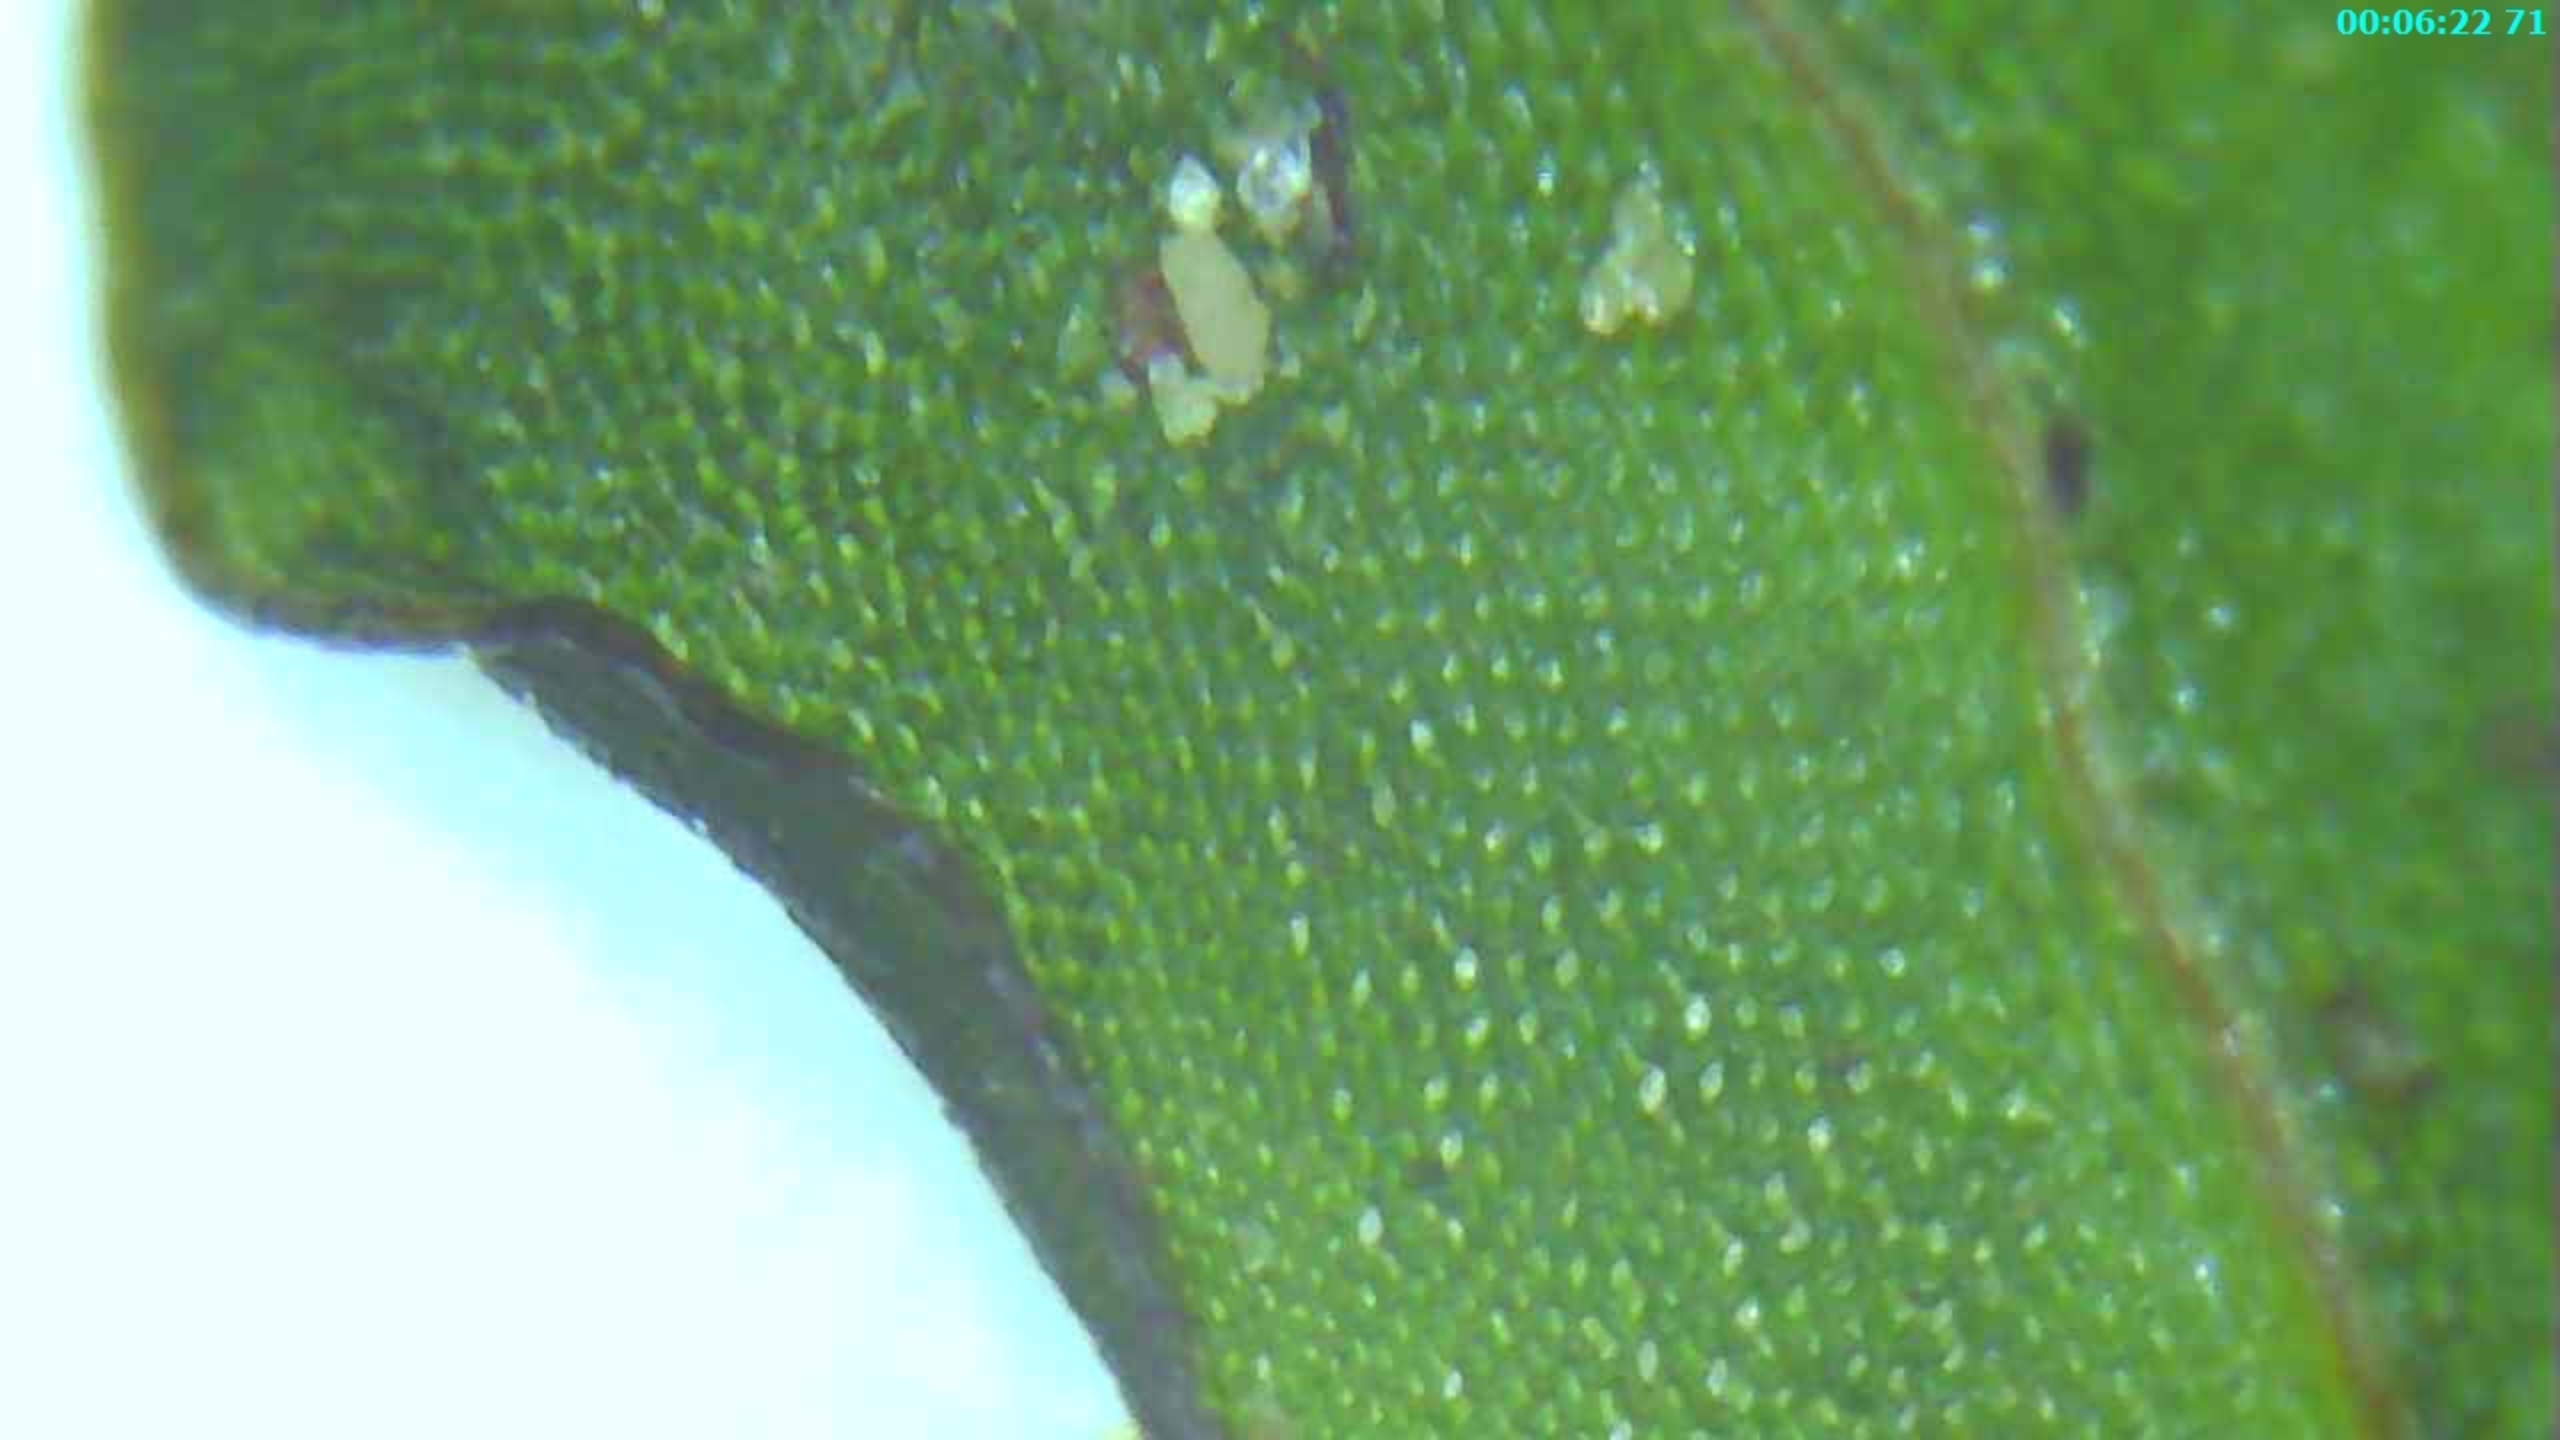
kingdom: Plantae
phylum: Bryophyta
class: Bryopsida
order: Bryales
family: Mniaceae
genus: Rhizomnium
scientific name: Rhizomnium punctatum
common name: Almindelig bredblad
